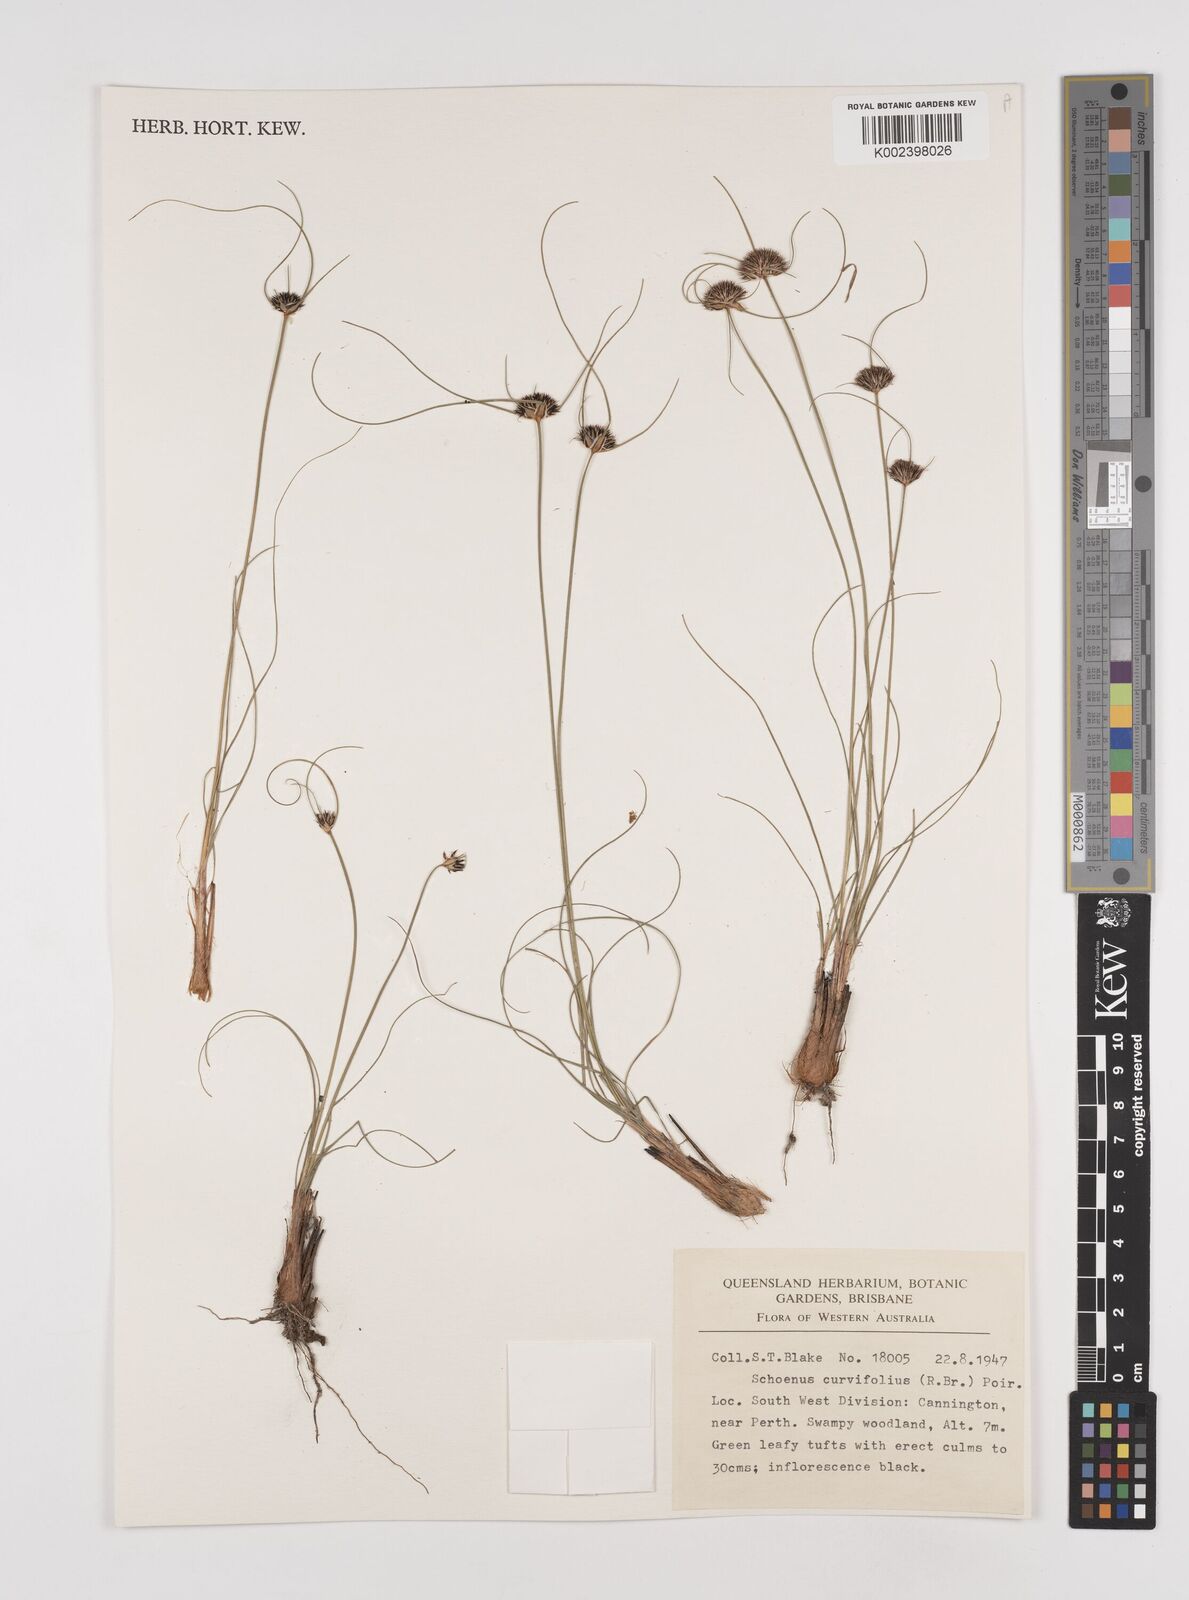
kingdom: Plantae
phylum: Tracheophyta
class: Liliopsida
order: Poales
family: Cyperaceae
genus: Schoenus
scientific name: Schoenus curvifolius
